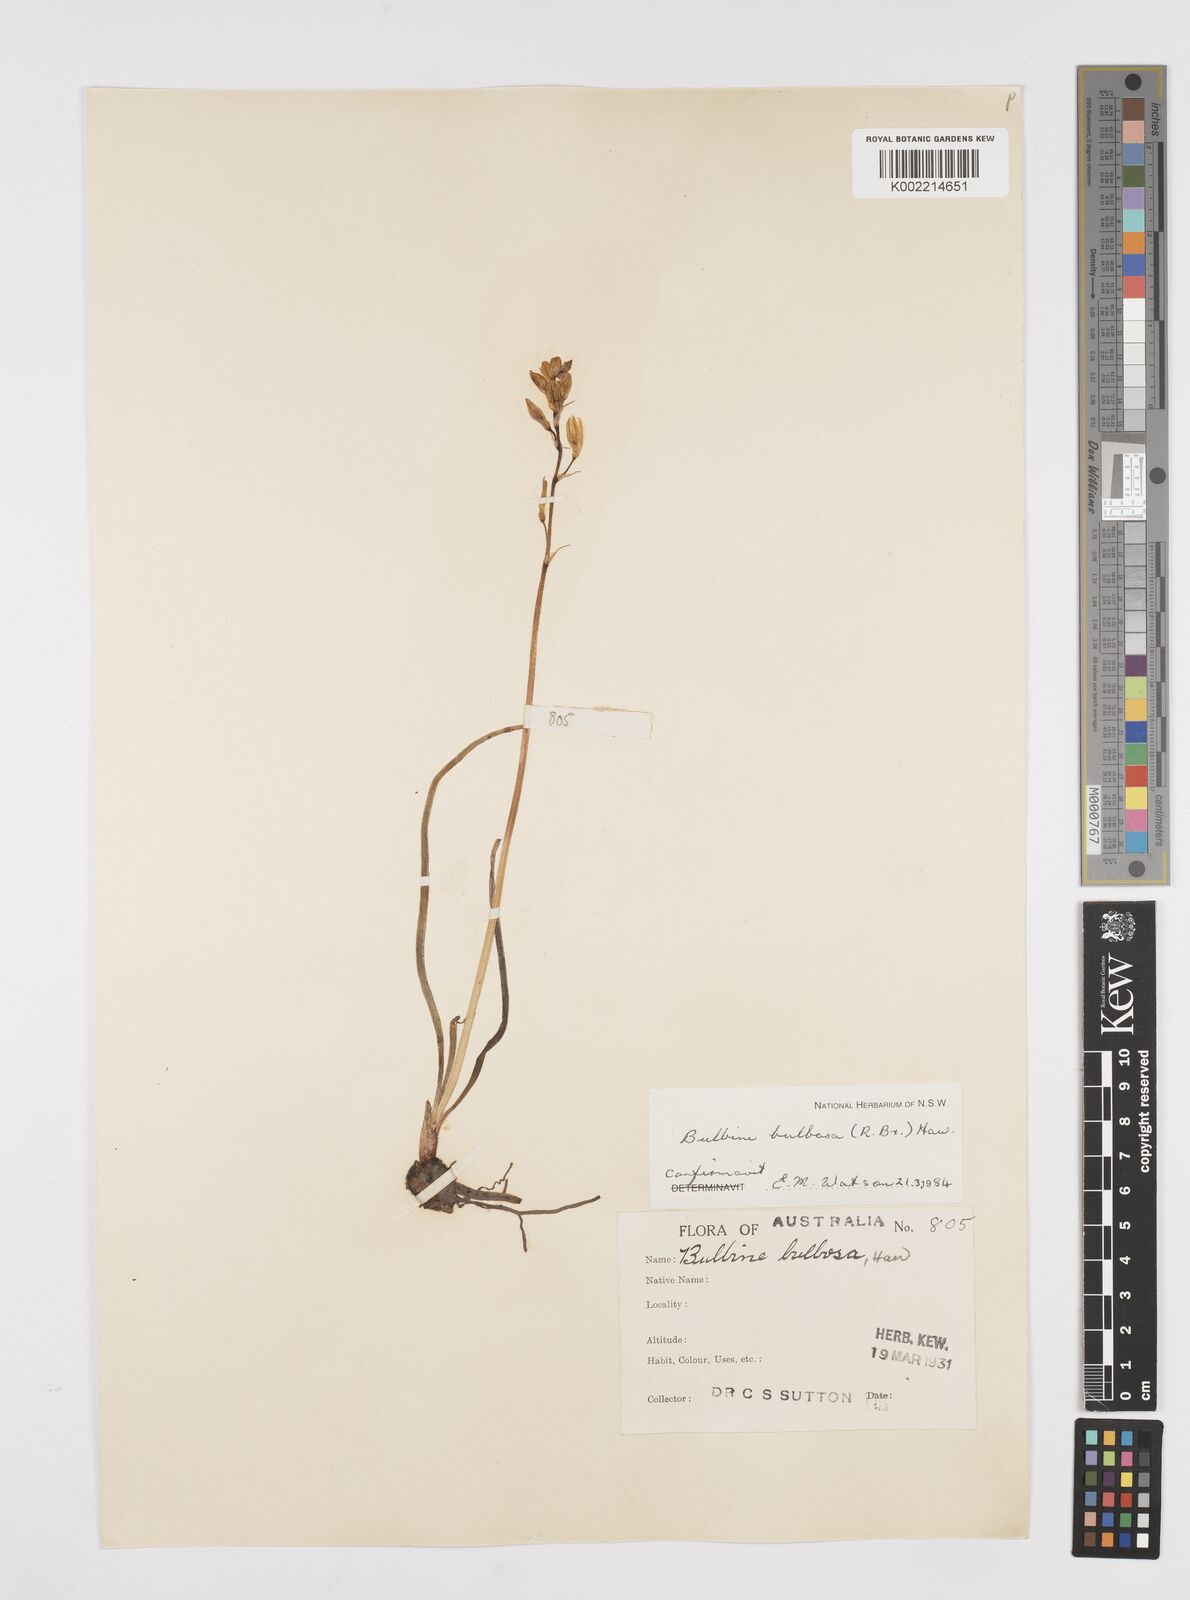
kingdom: Plantae
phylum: Tracheophyta
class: Liliopsida
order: Asparagales
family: Asphodelaceae
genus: Bulbine
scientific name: Bulbine bulbosa
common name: Golden-lily
